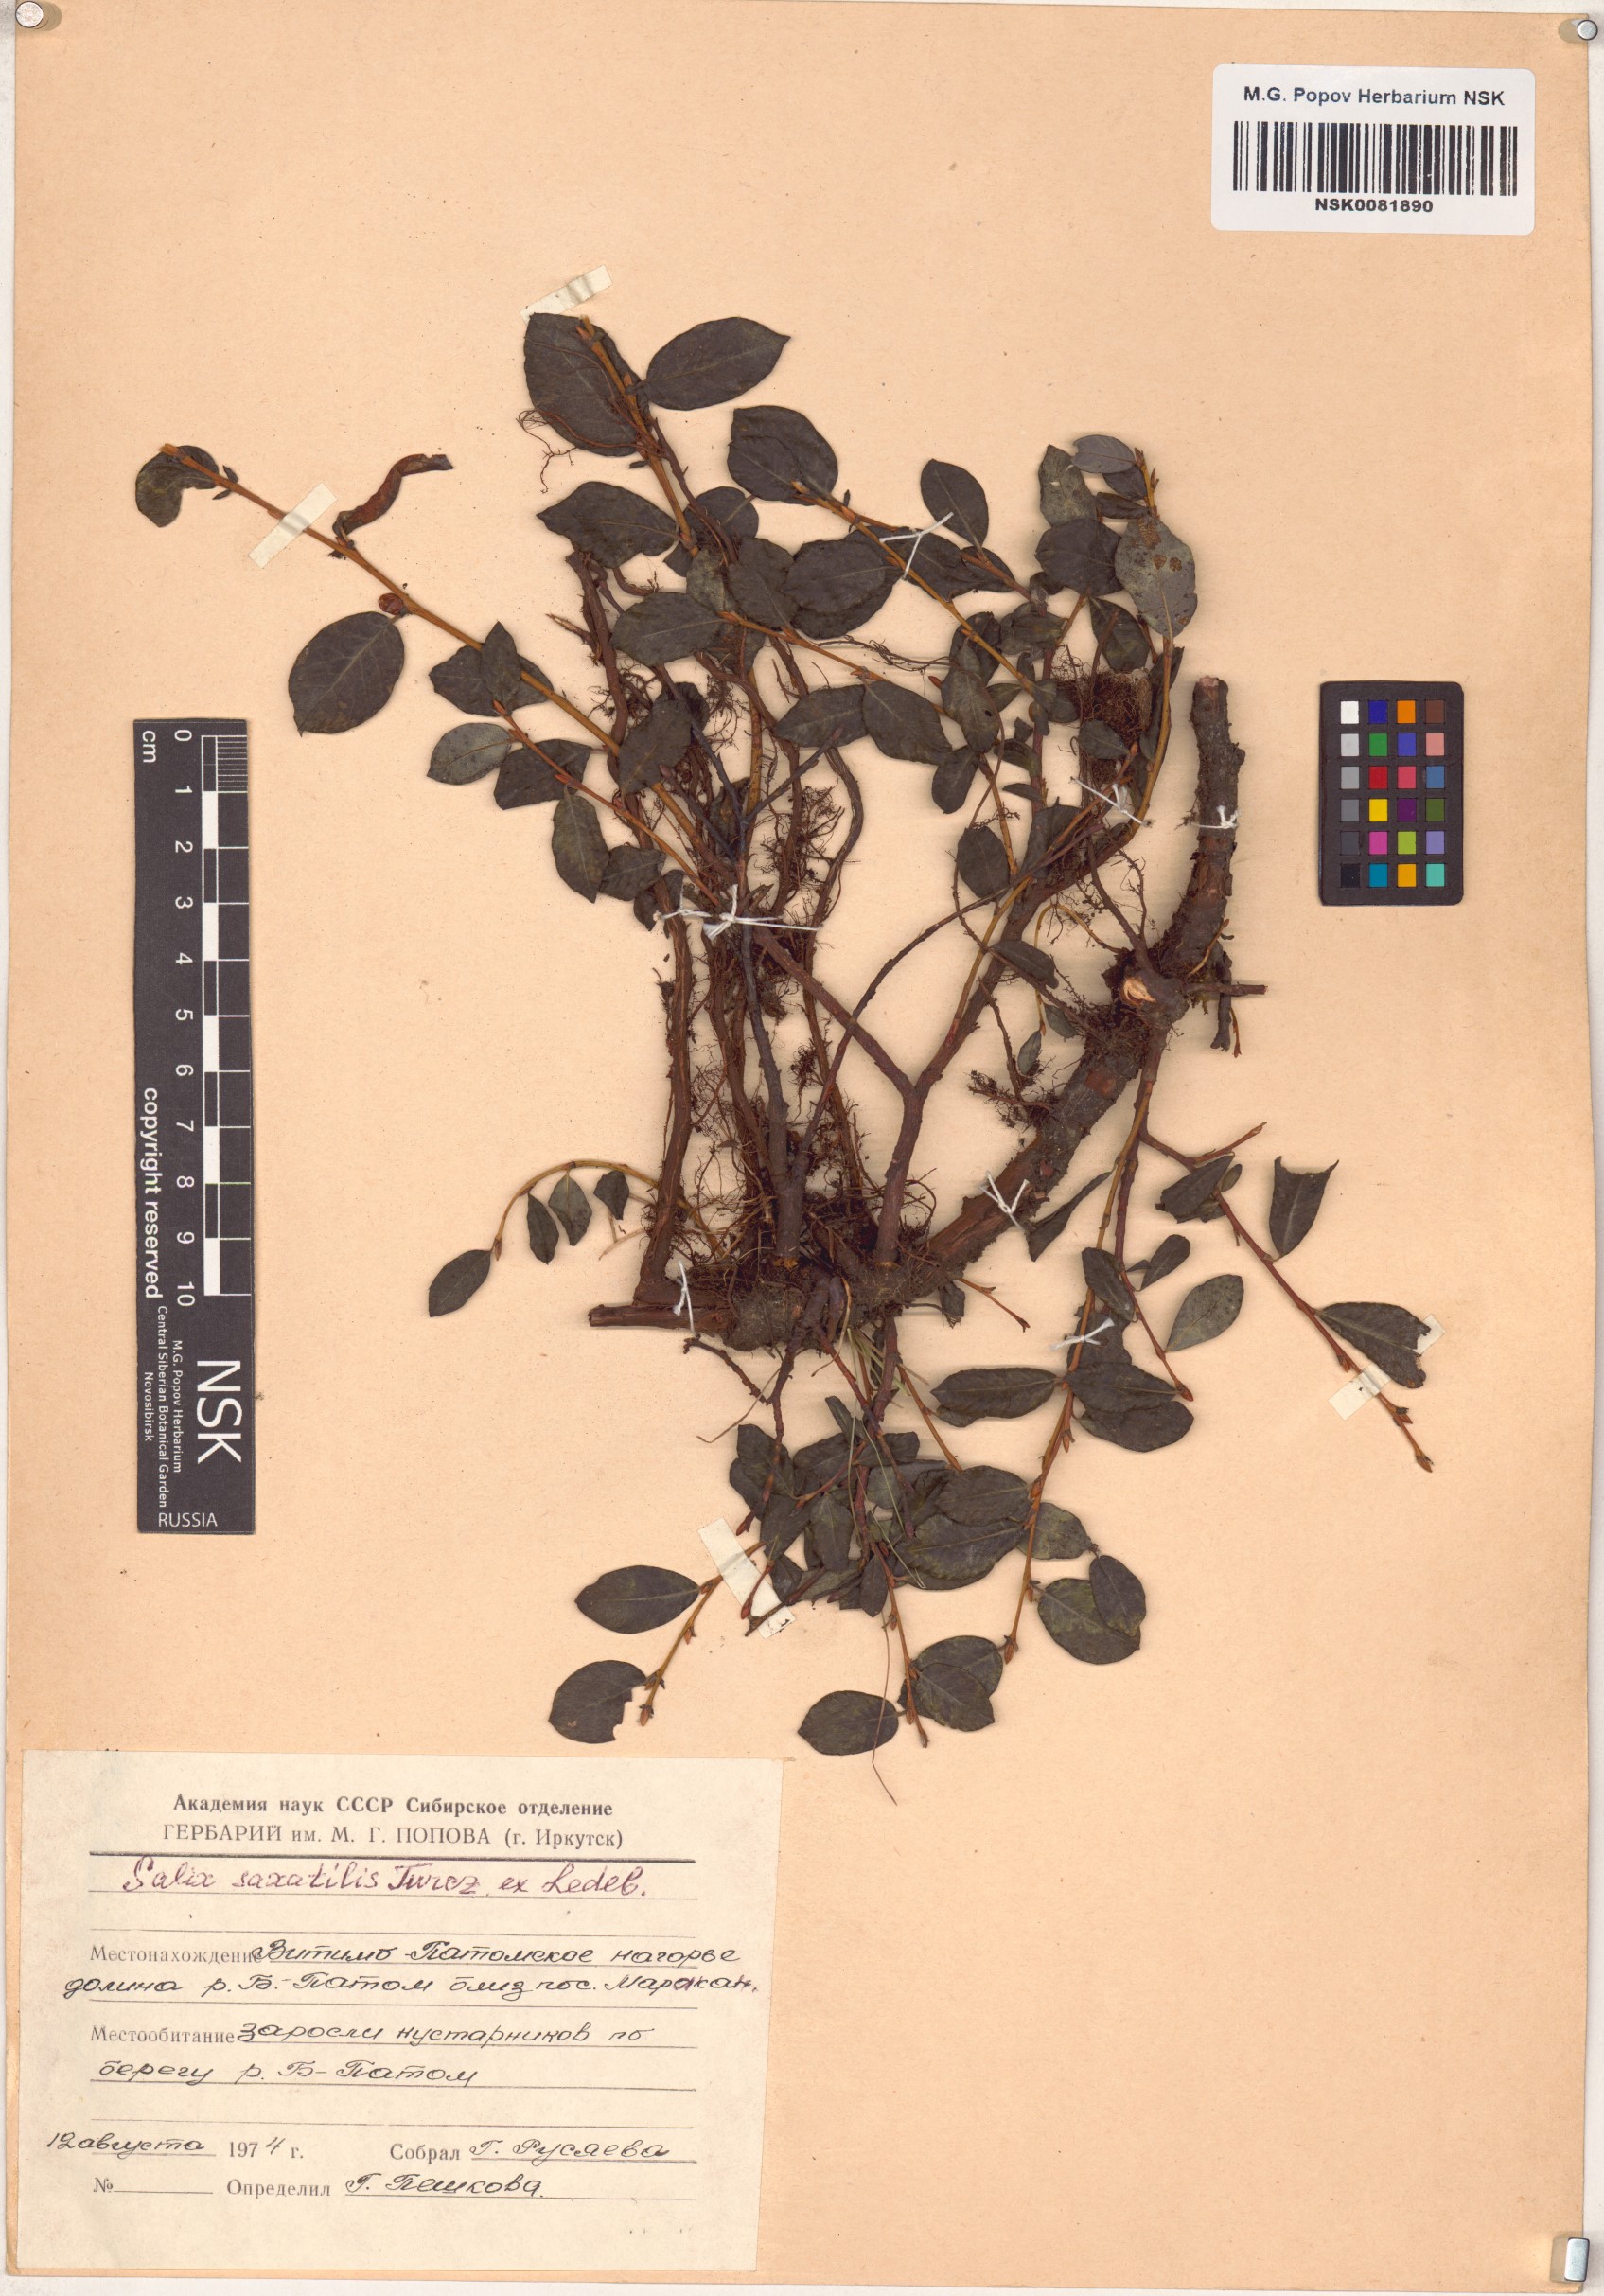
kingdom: Plantae
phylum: Tracheophyta
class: Magnoliopsida
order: Malpighiales
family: Salicaceae
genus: Salix
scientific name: Salix saxatilis
